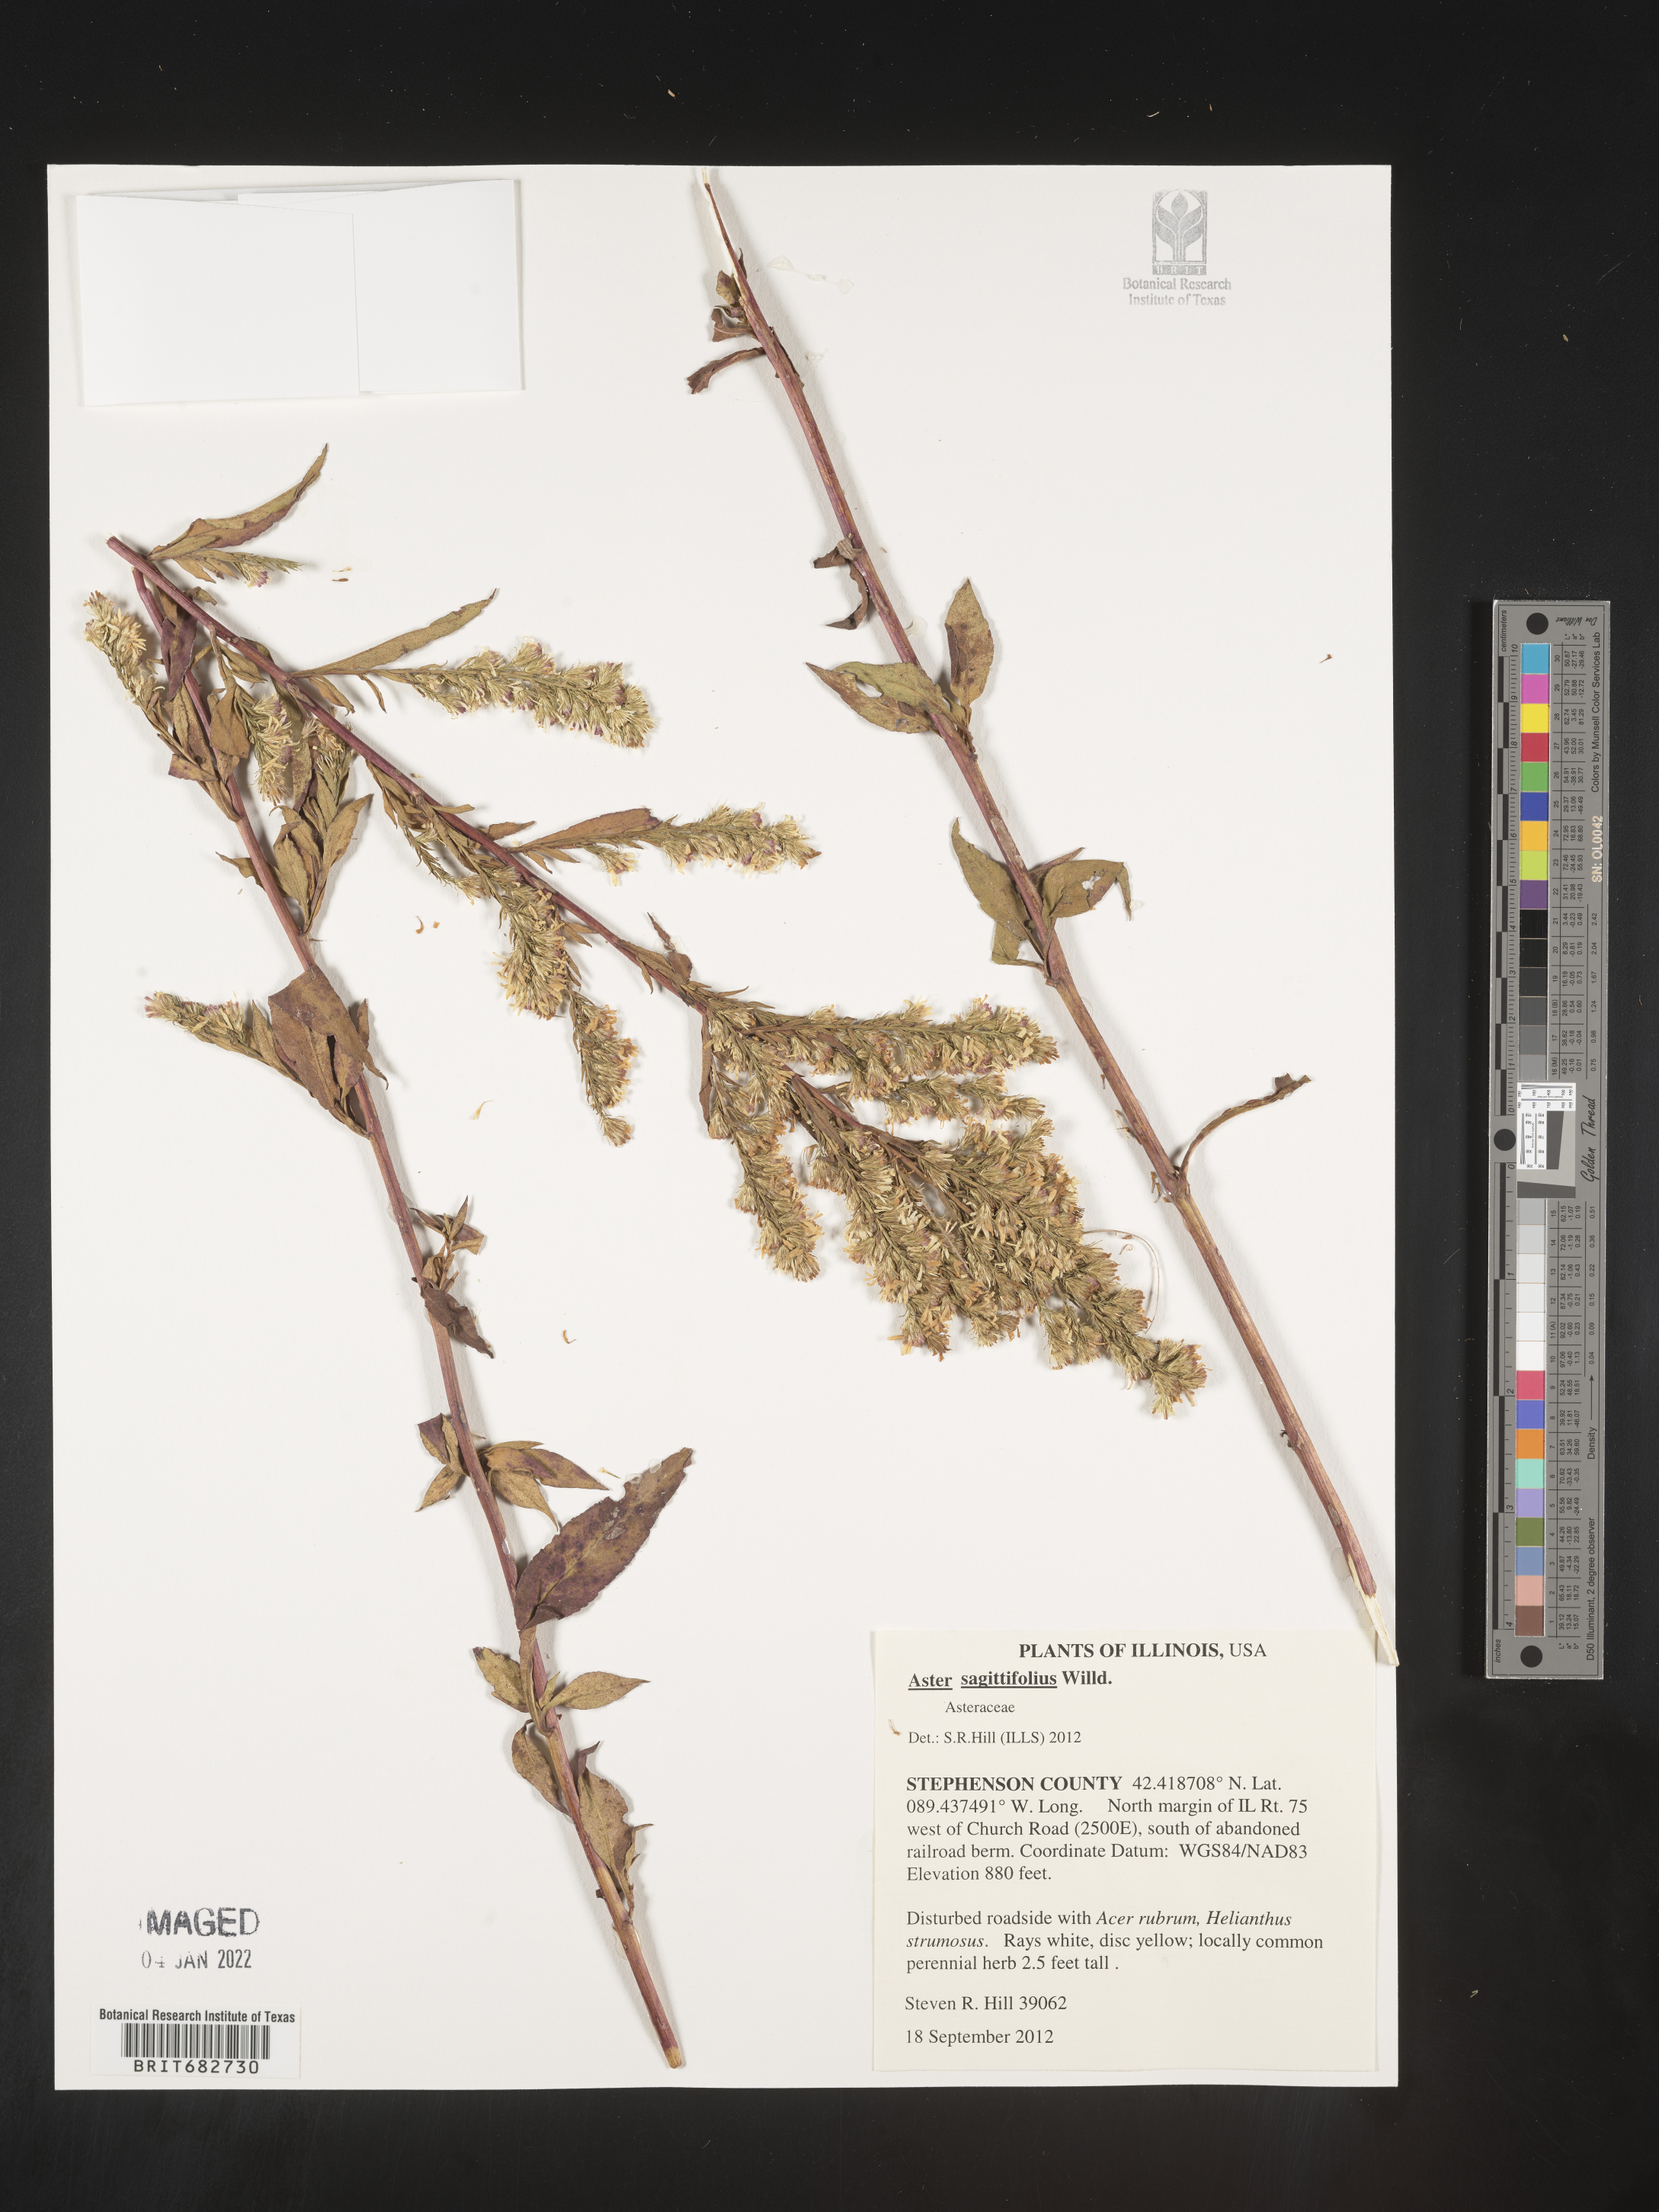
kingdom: Plantae
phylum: Tracheophyta
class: Magnoliopsida
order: Asterales
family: Asteraceae
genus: Aster
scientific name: Aster
